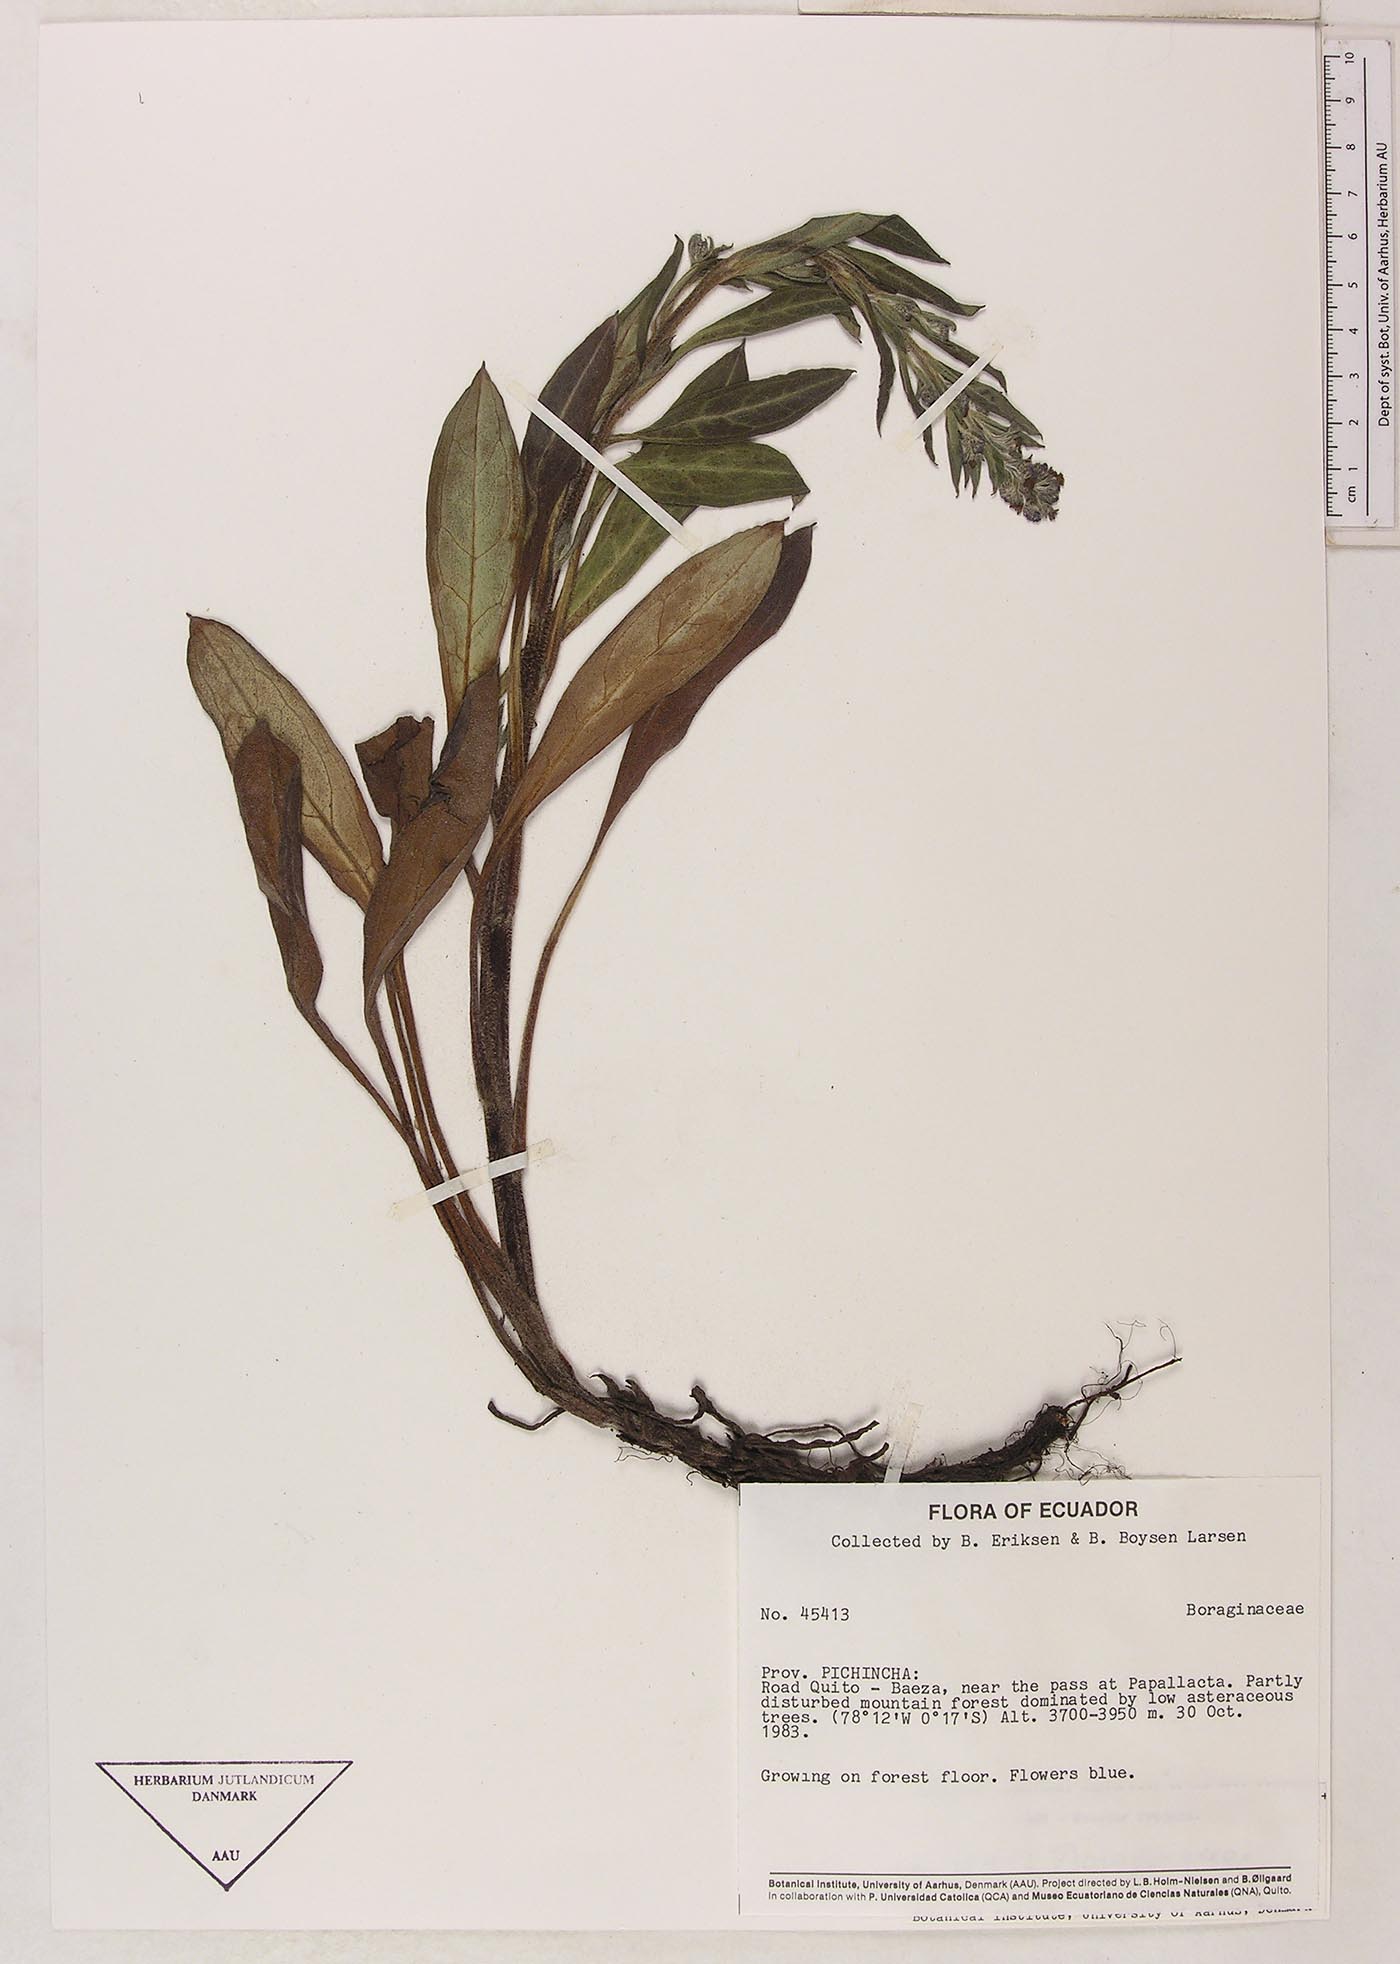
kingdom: Plantae
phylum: Tracheophyta
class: Magnoliopsida
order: Boraginales
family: Boraginaceae
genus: Moritzia
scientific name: Moritzia lindenii
